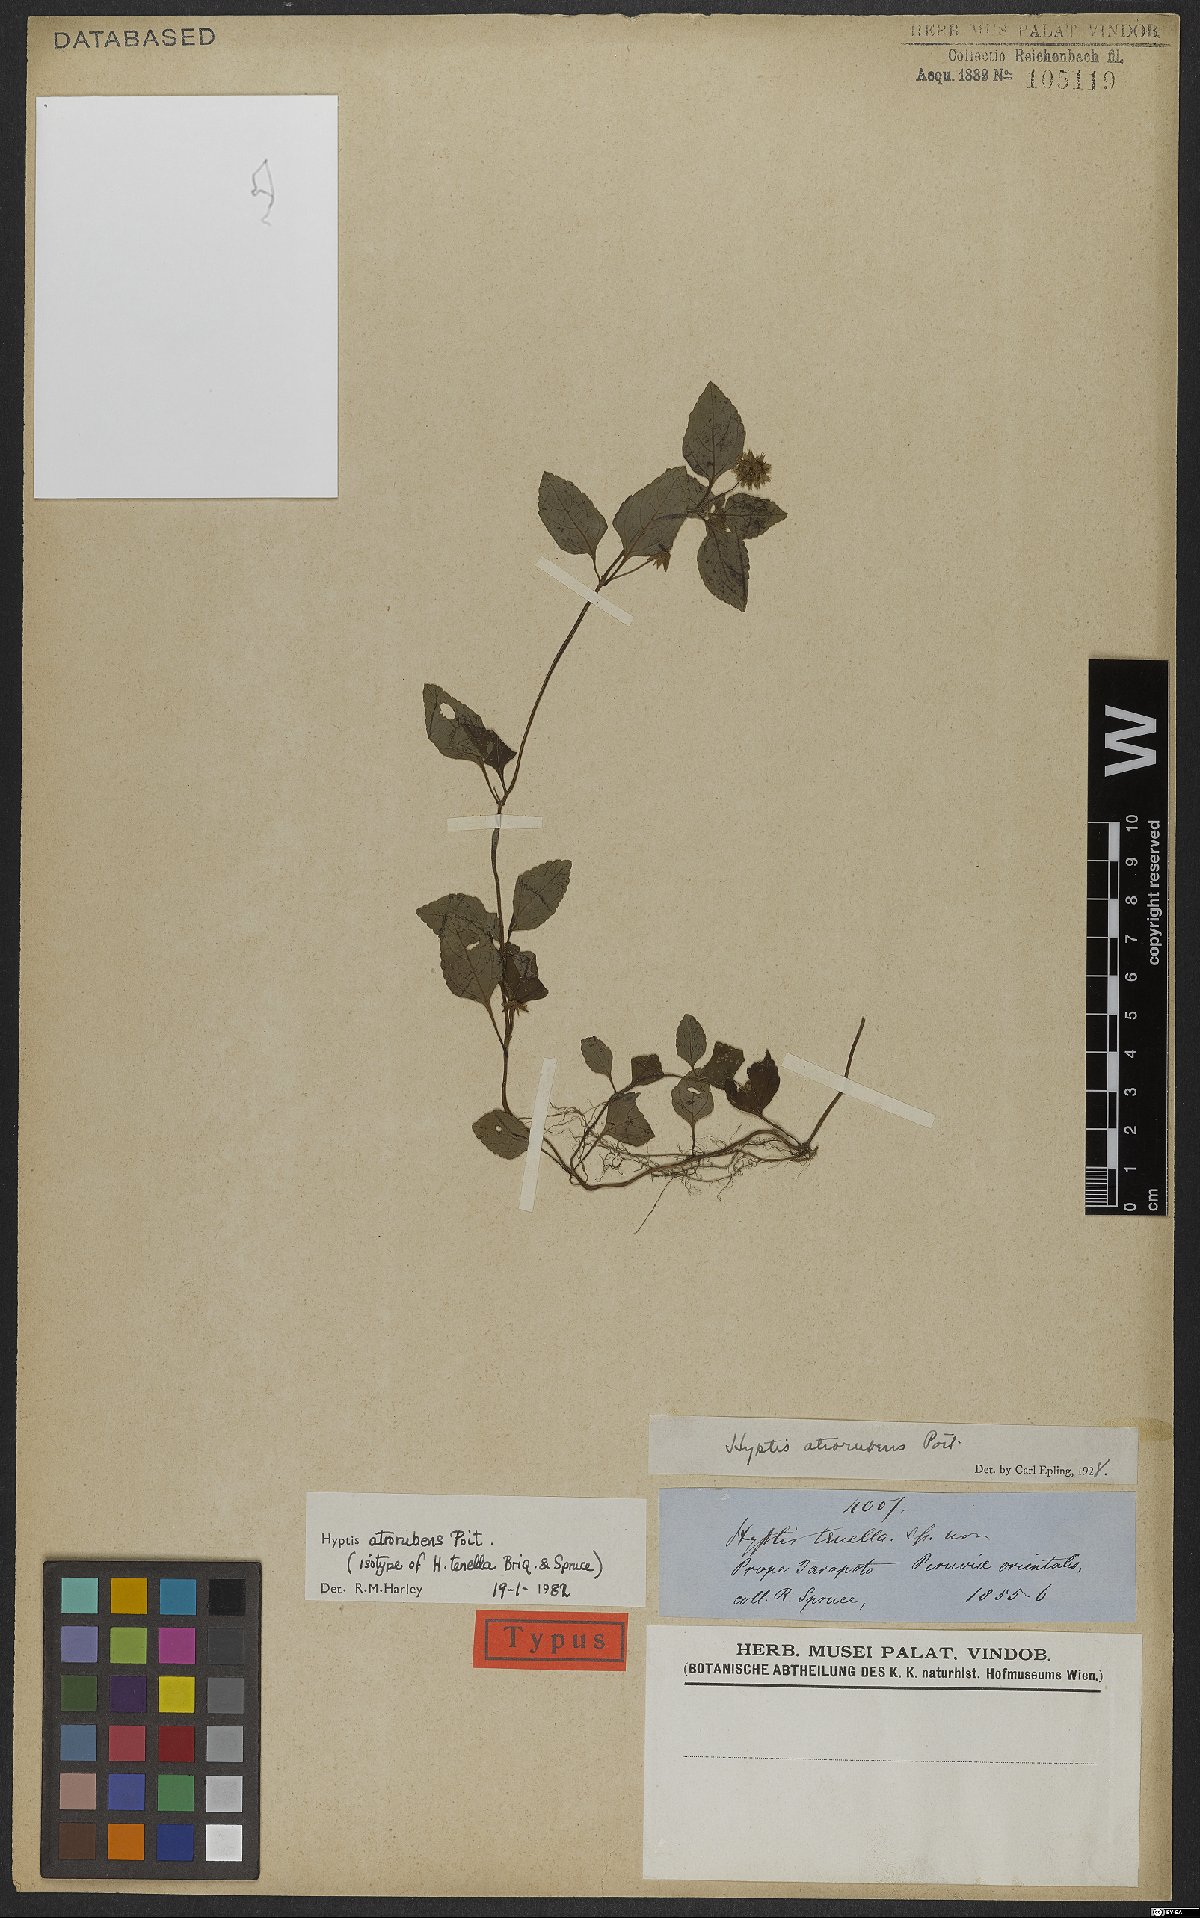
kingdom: Plantae
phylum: Tracheophyta
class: Magnoliopsida
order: Lamiales
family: Lamiaceae
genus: Hyptis
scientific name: Hyptis atrorubens
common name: Lanmant
